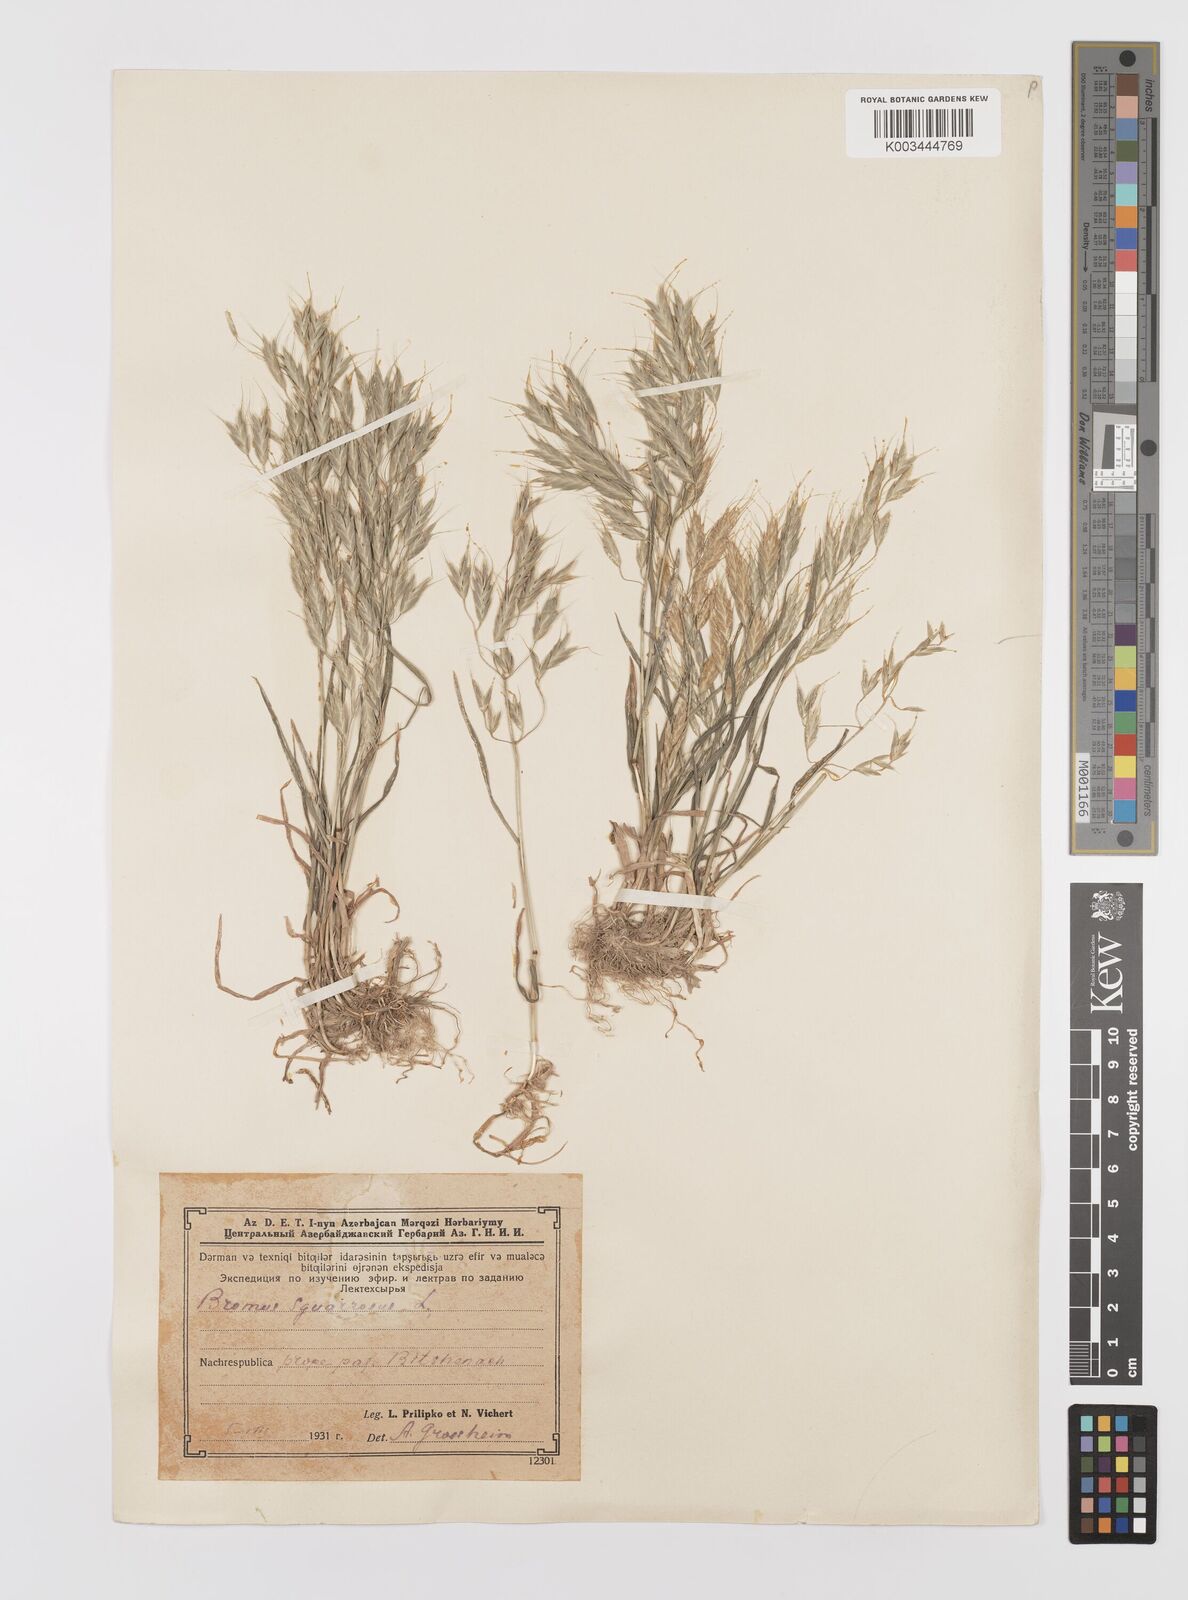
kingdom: Plantae
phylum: Tracheophyta
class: Liliopsida
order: Poales
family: Poaceae
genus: Bromus
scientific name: Bromus squarrosus
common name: Corn brome
